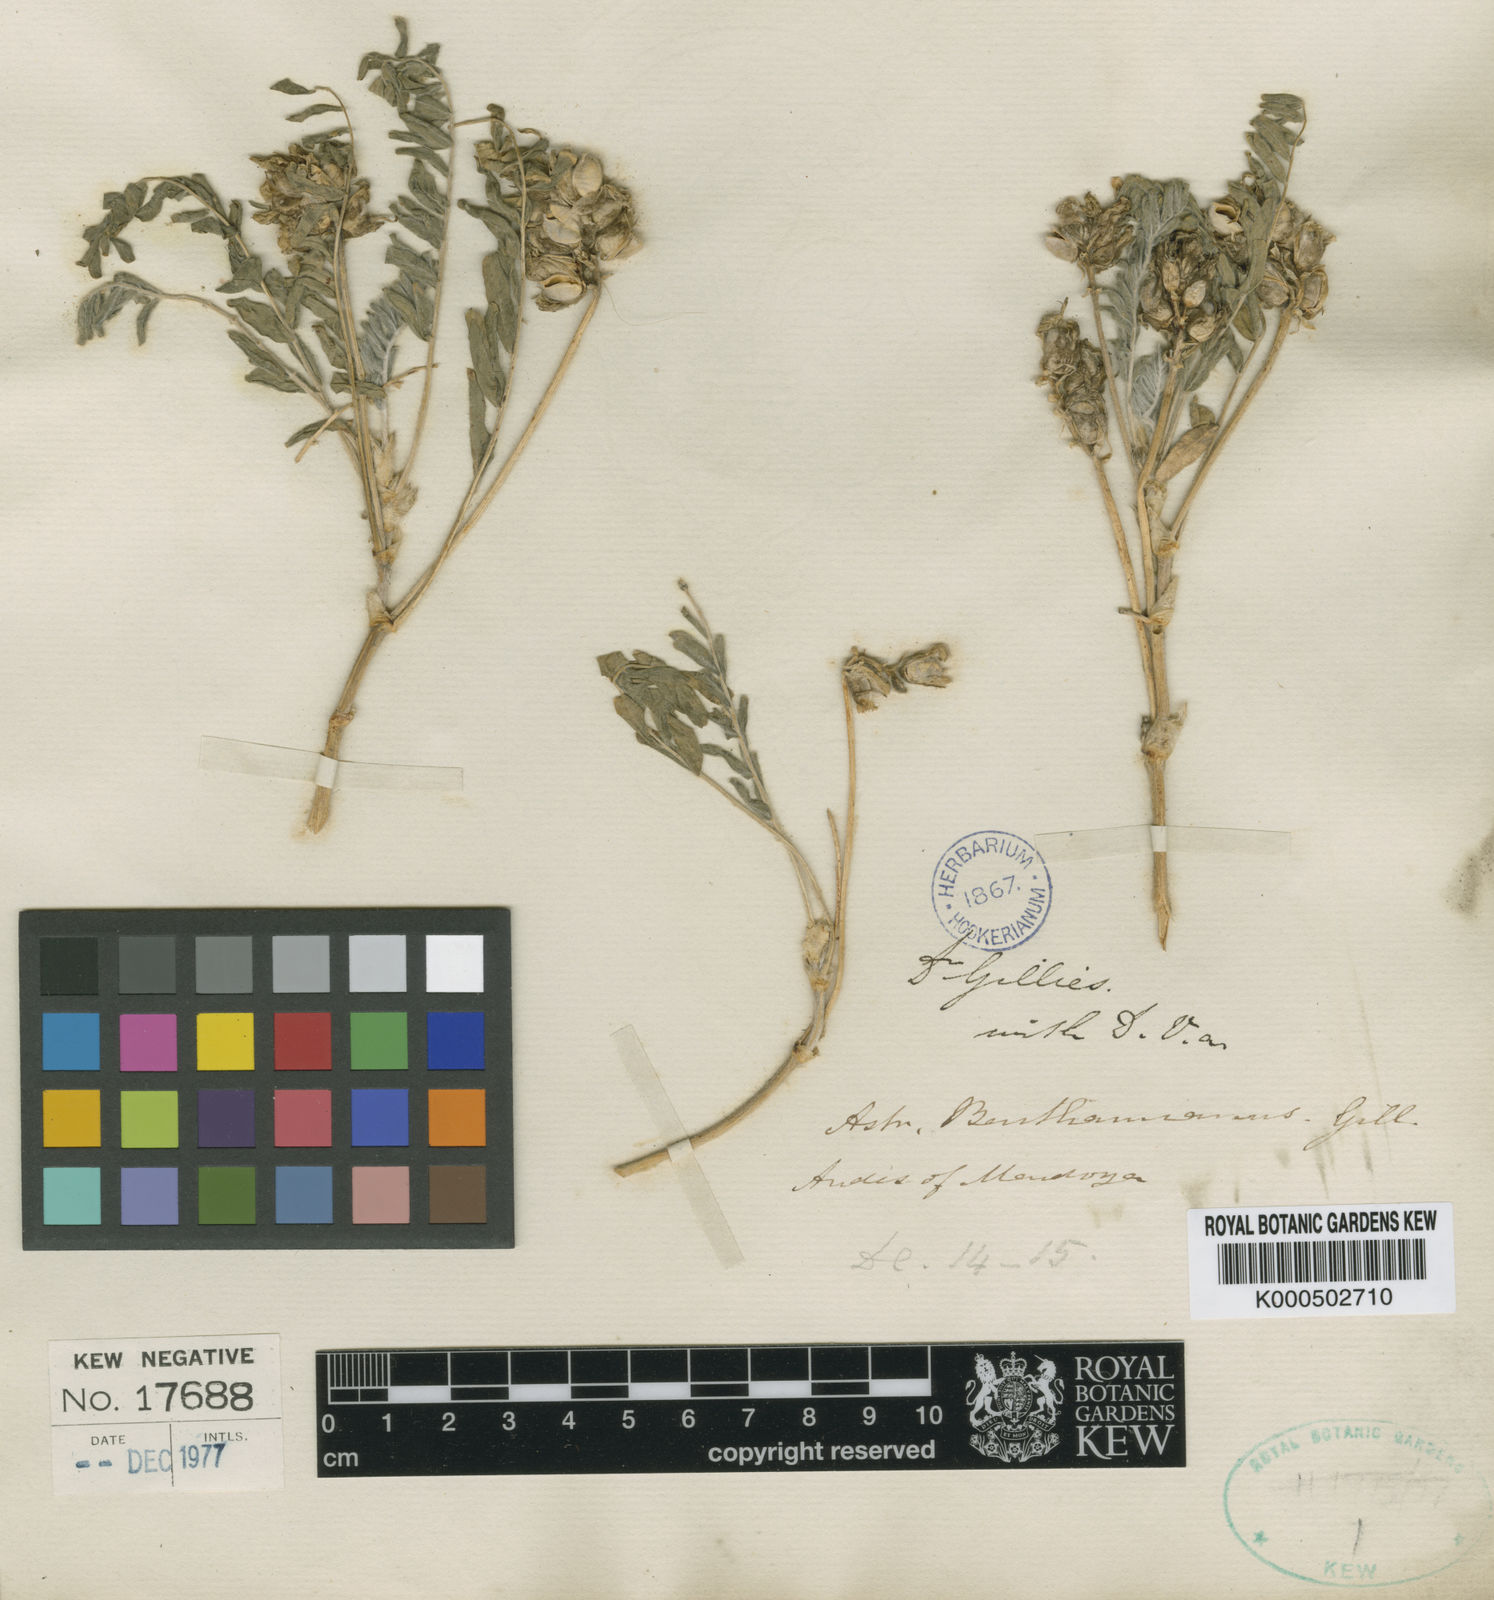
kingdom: Plantae
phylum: Tracheophyta
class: Magnoliopsida
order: Fabales
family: Fabaceae
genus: Astragalus
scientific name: Astragalus garbancillo
